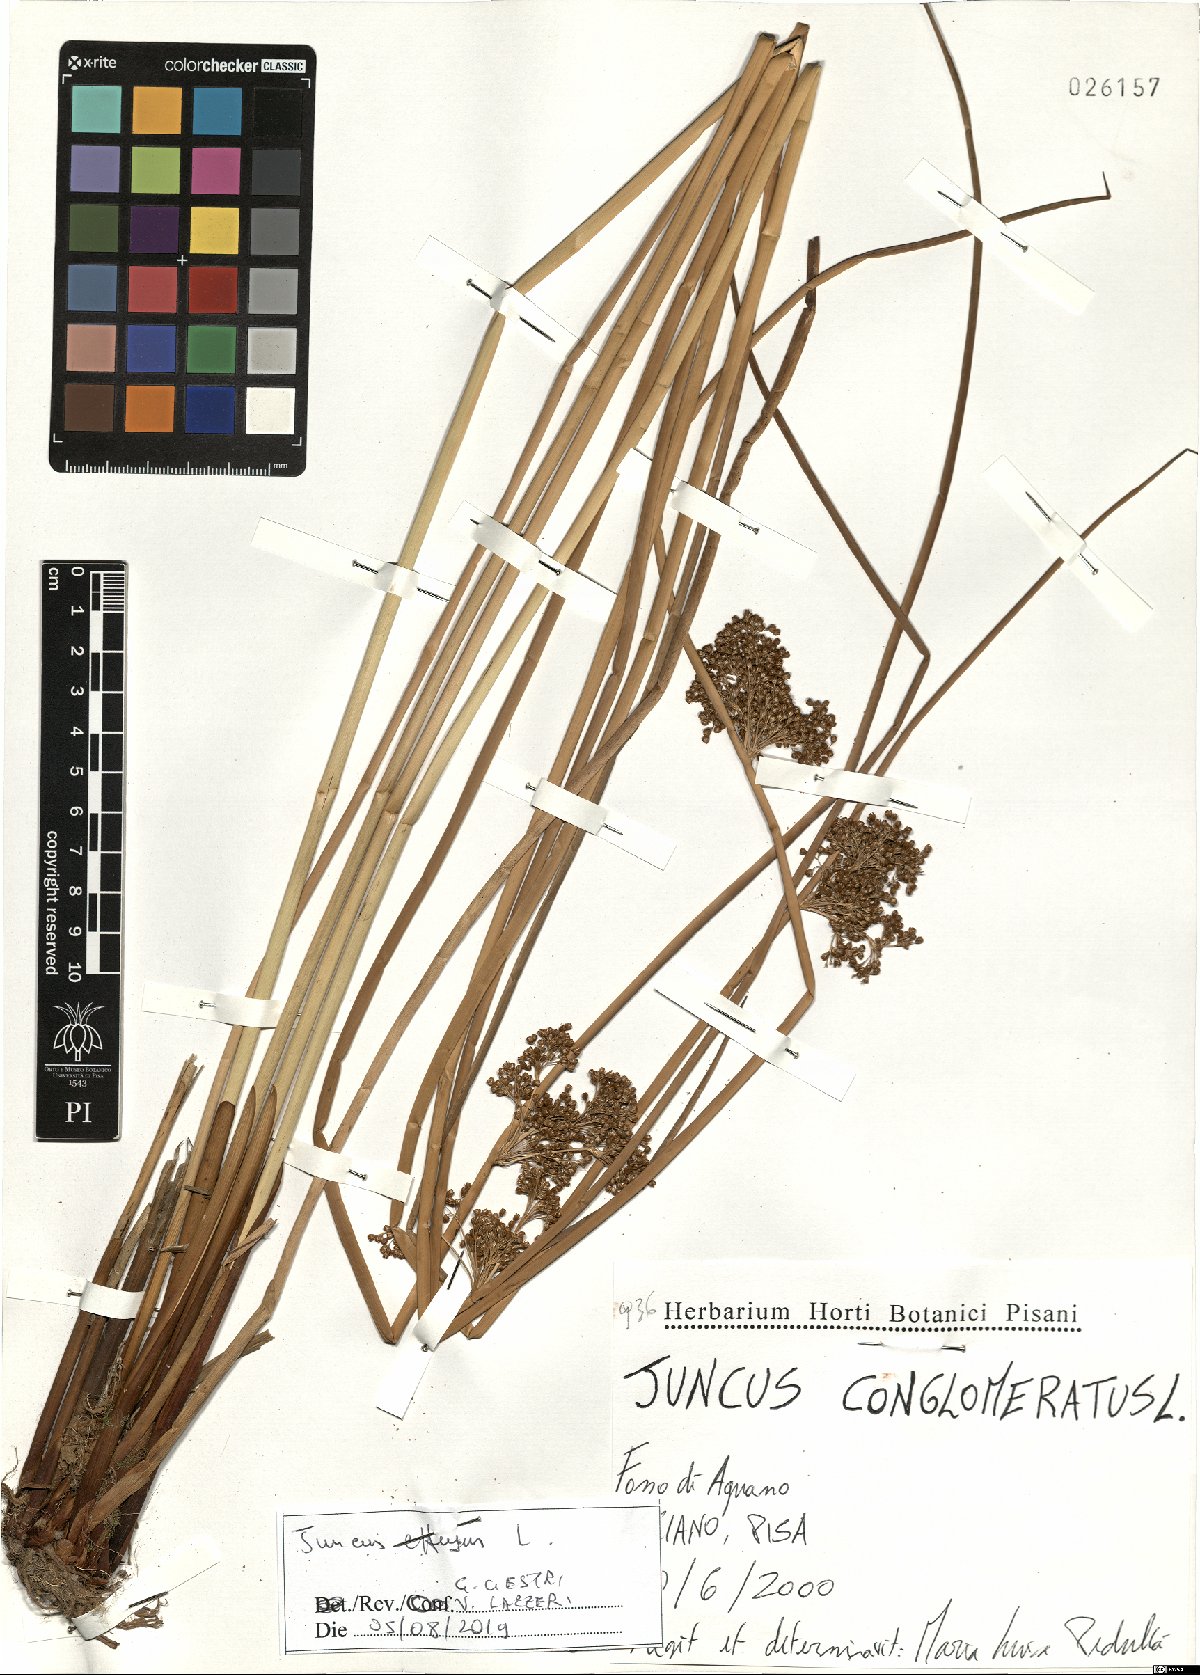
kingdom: Plantae
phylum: Tracheophyta
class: Liliopsida
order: Poales
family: Juncaceae
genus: Juncus
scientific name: Juncus effusus
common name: Soft rush
